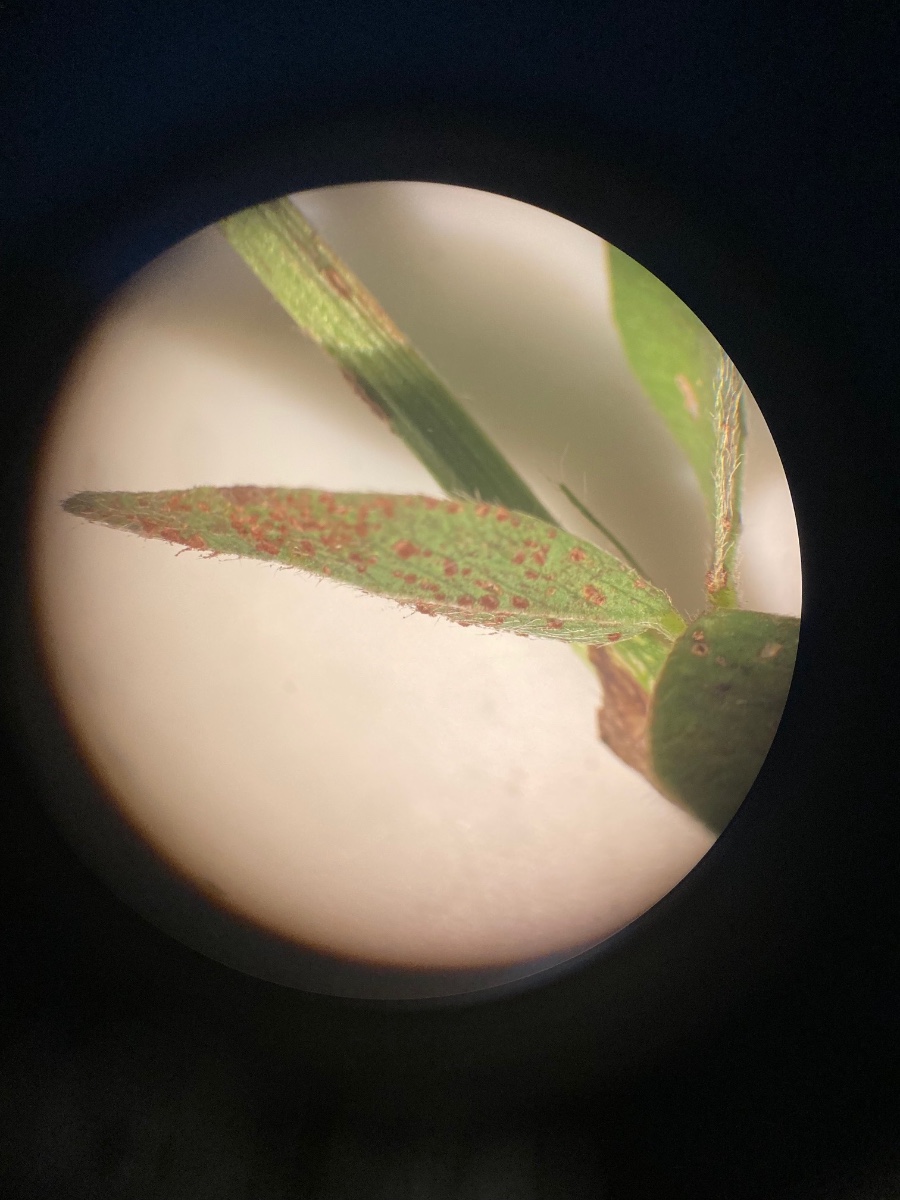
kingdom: Fungi
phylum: Basidiomycota
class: Pucciniomycetes
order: Pucciniales
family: Pucciniaceae
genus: Uromyces
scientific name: Uromyces fallens
